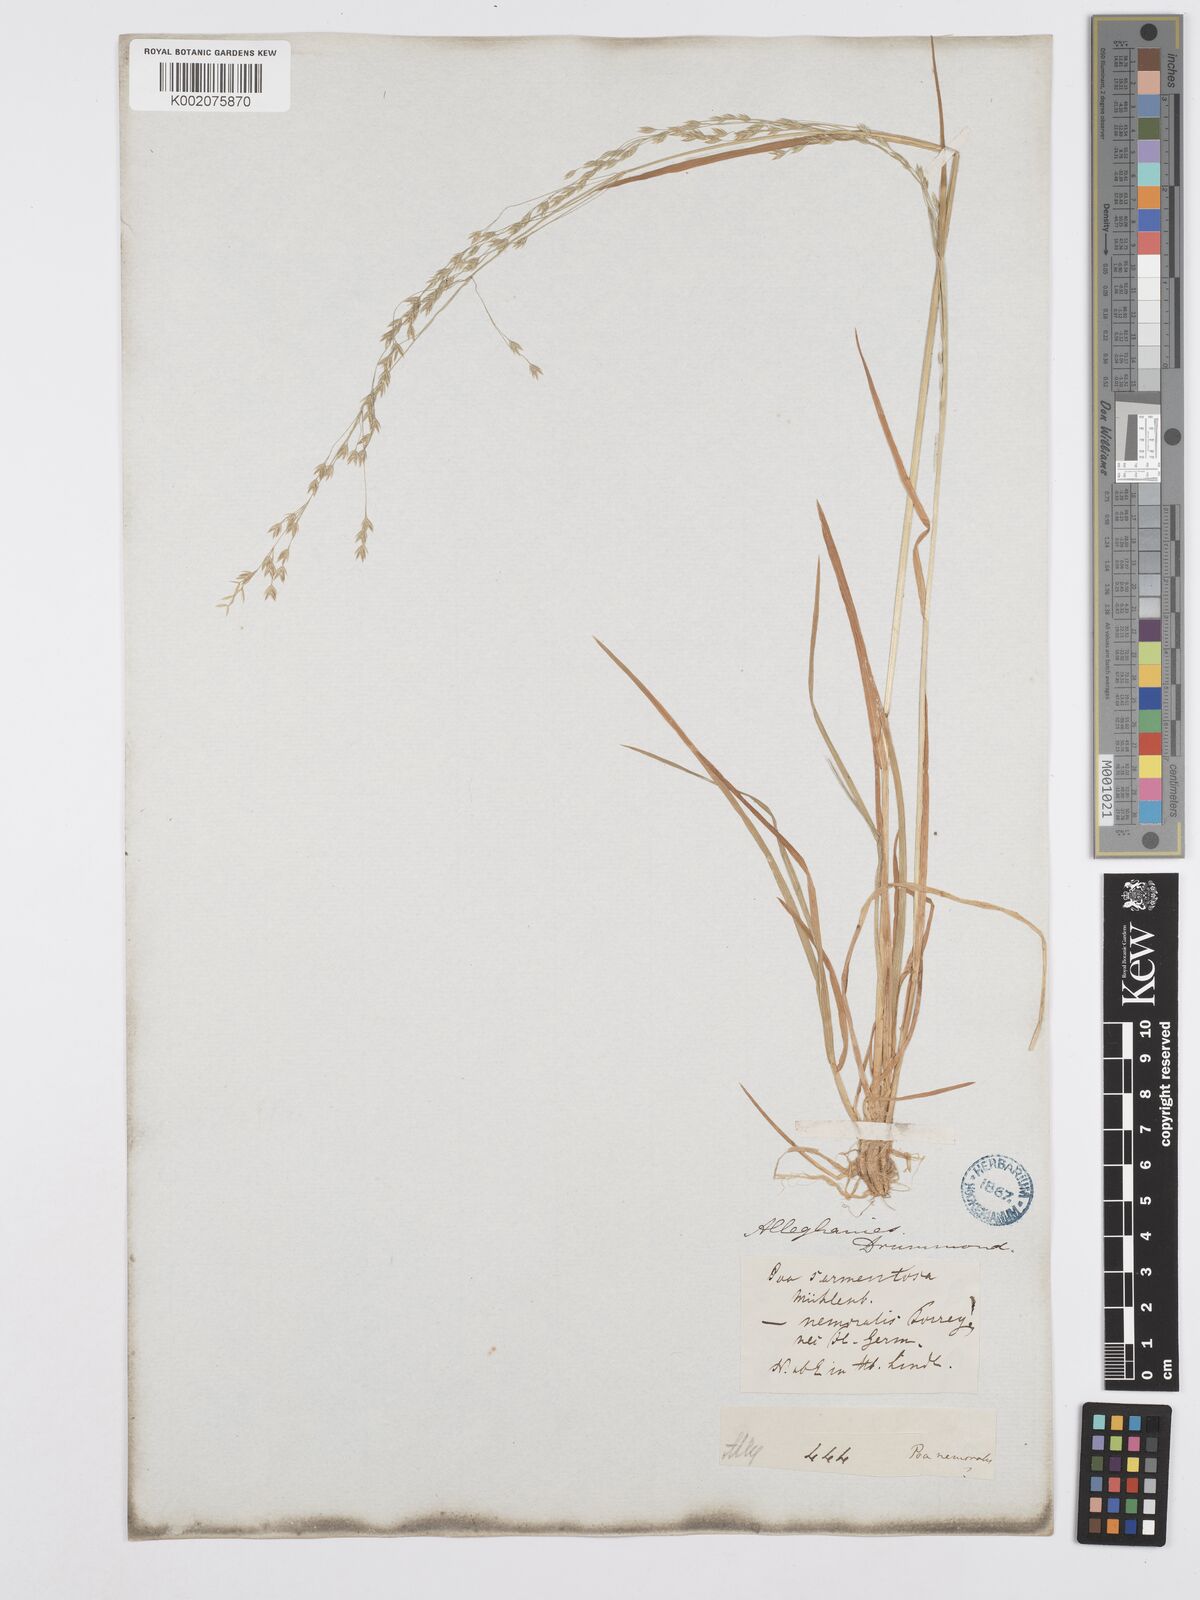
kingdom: Plantae
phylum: Tracheophyta
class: Liliopsida
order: Poales
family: Poaceae
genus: Poa
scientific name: Poa saltuensis
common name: Bushy pasture speargrass
